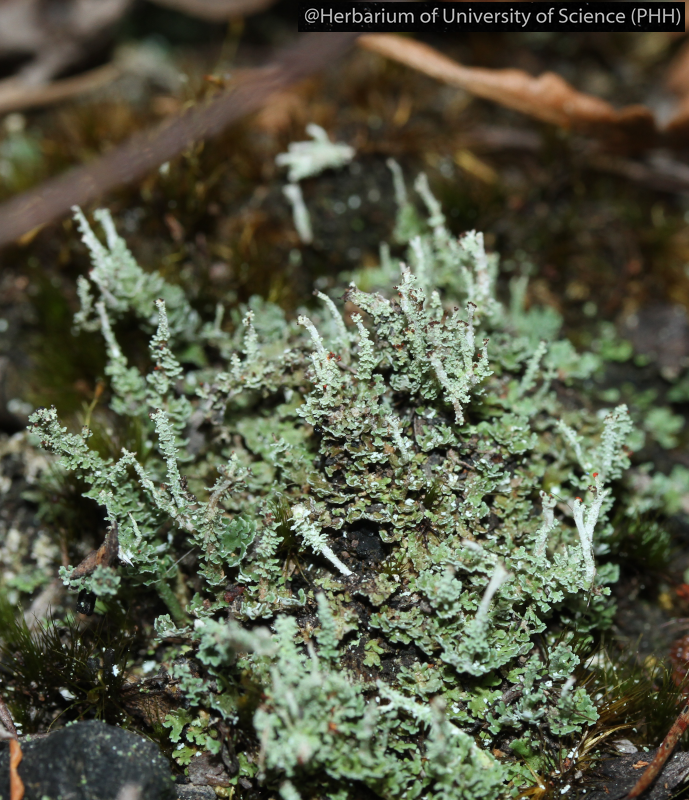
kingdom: Fungi
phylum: Ascomycota
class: Lecanoromycetes
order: Lecanorales
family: Cladoniaceae
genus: Cladonia
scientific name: Cladonia
